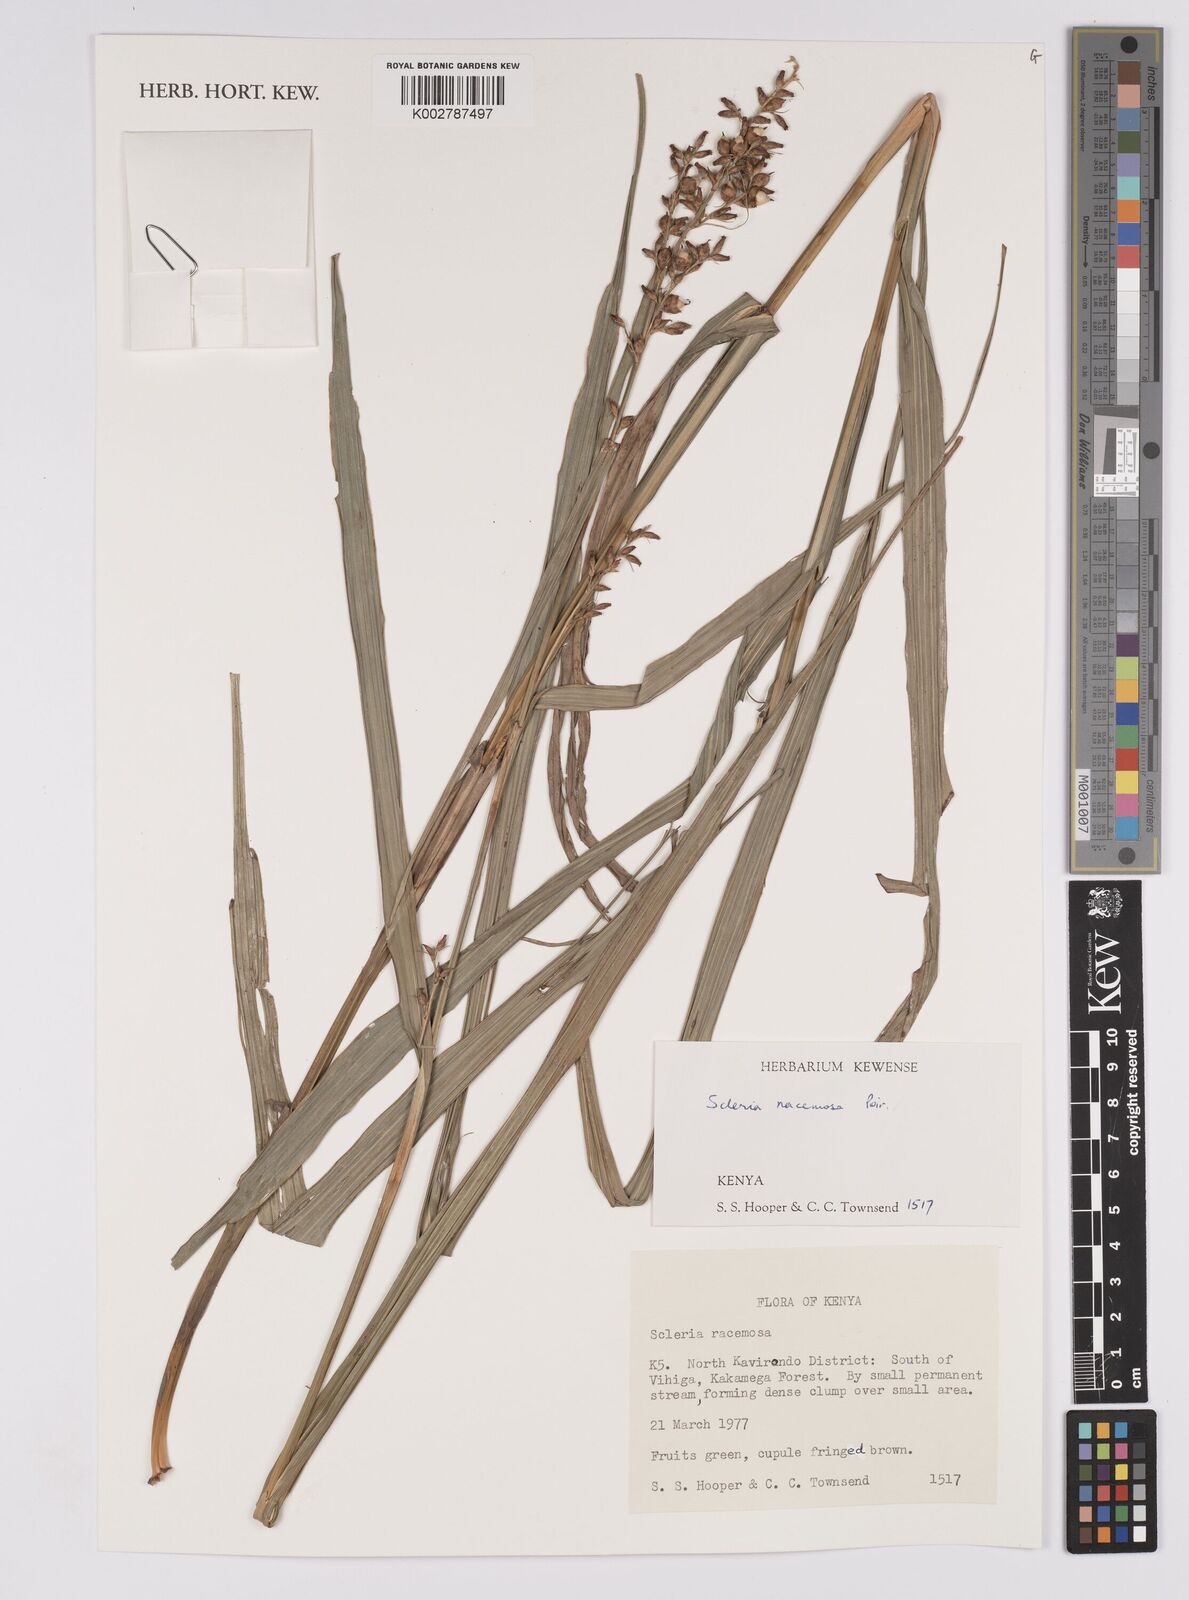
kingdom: Plantae
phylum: Tracheophyta
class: Liliopsida
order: Poales
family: Cyperaceae
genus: Scleria
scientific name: Scleria racemosa
